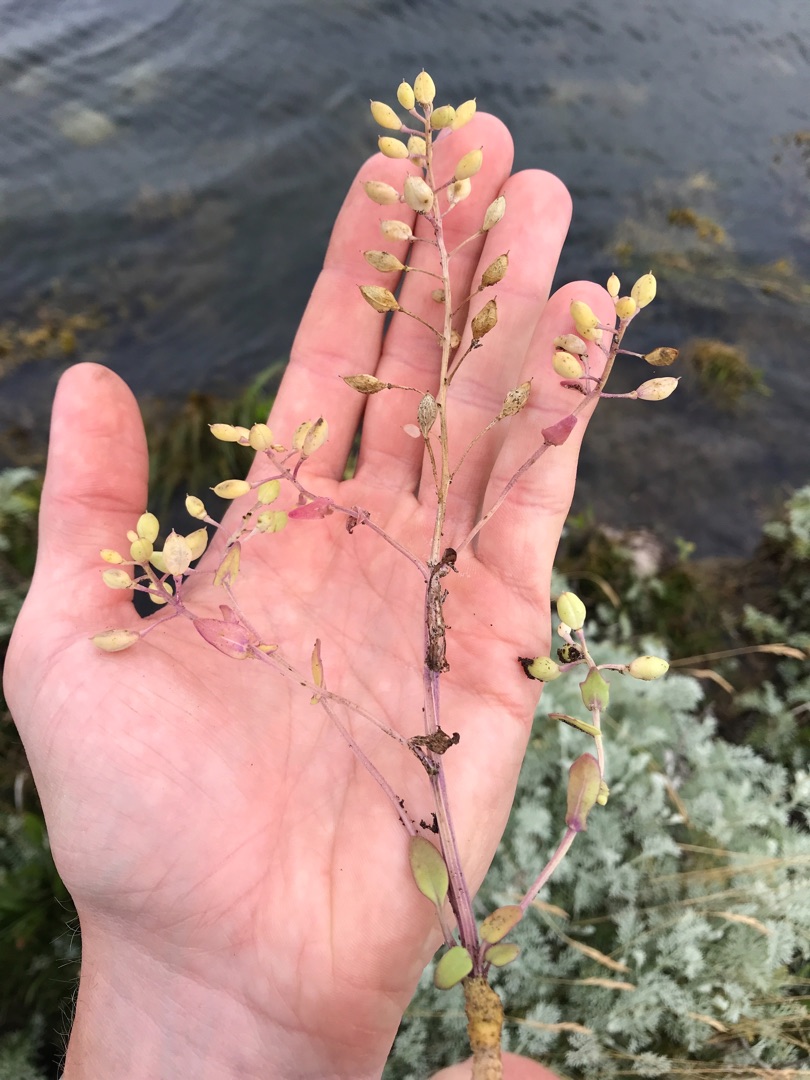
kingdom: Plantae
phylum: Tracheophyta
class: Magnoliopsida
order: Brassicales
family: Brassicaceae
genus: Cochlearia
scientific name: Cochlearia anglica
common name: Engelsk kokleare
